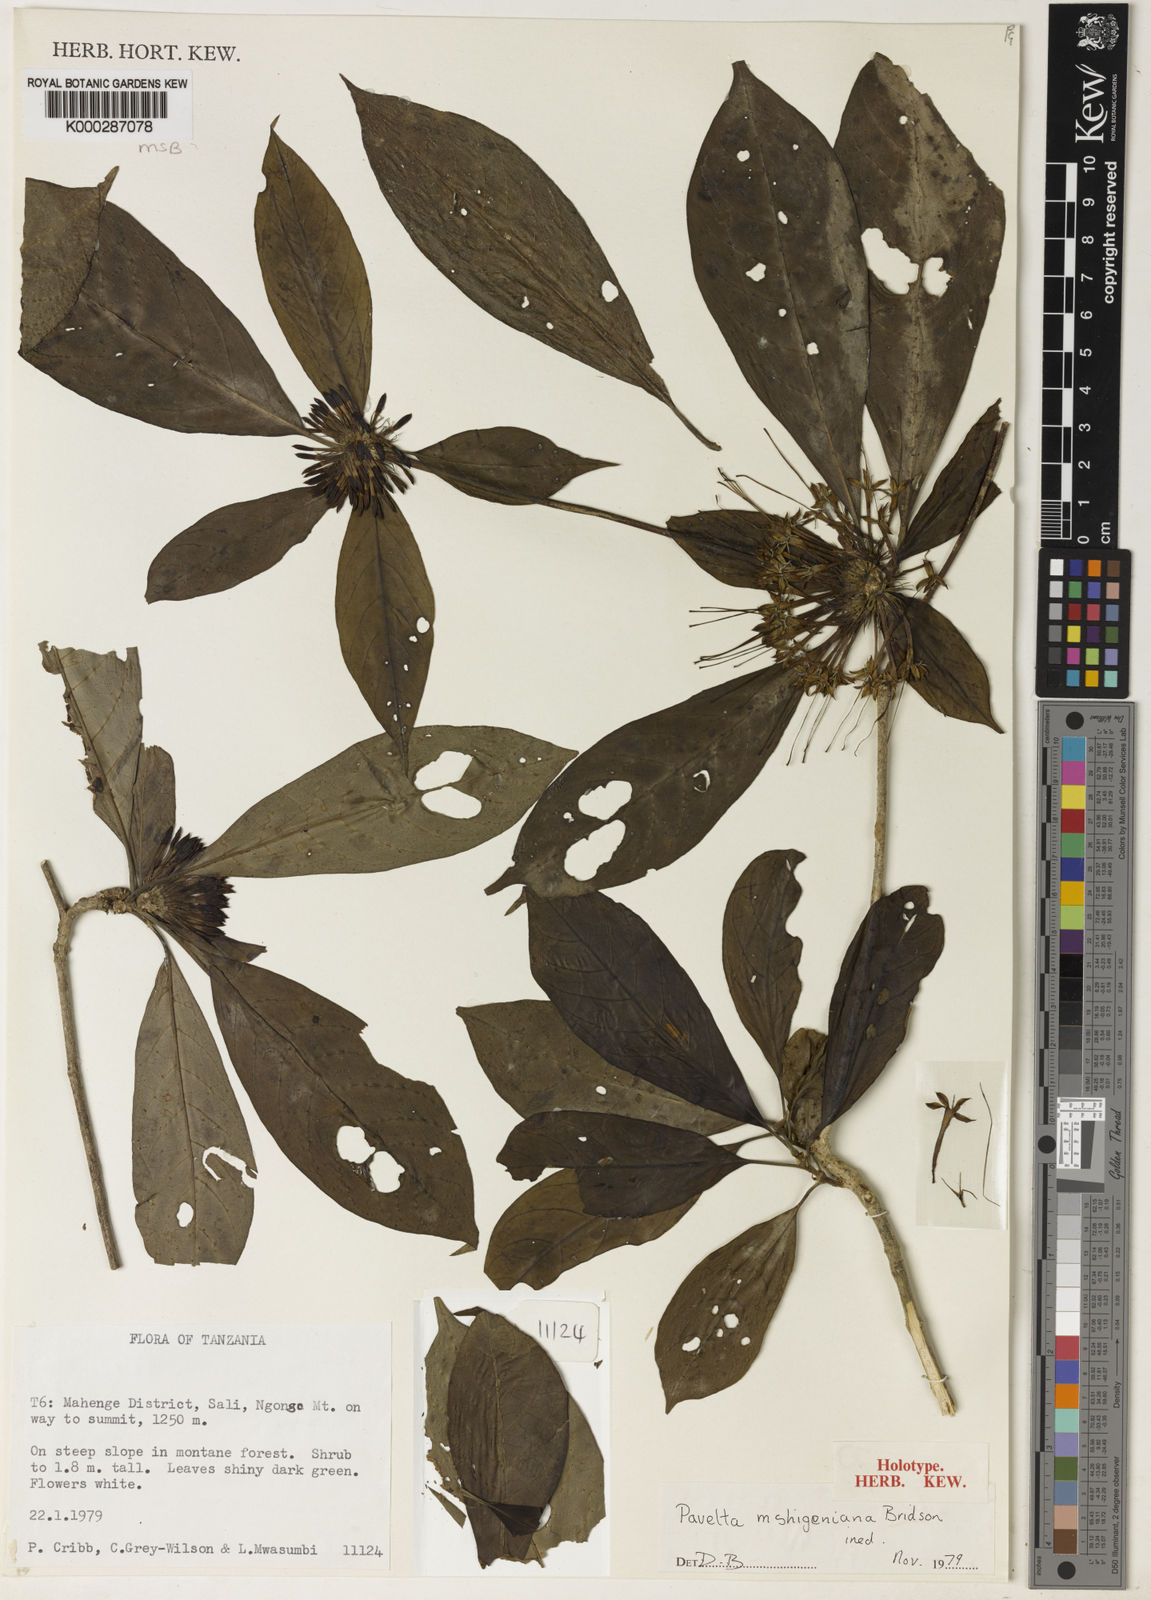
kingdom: Plantae
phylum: Tracheophyta
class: Magnoliopsida
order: Gentianales
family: Rubiaceae
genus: Pavetta
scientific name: Pavetta mshigeniana
